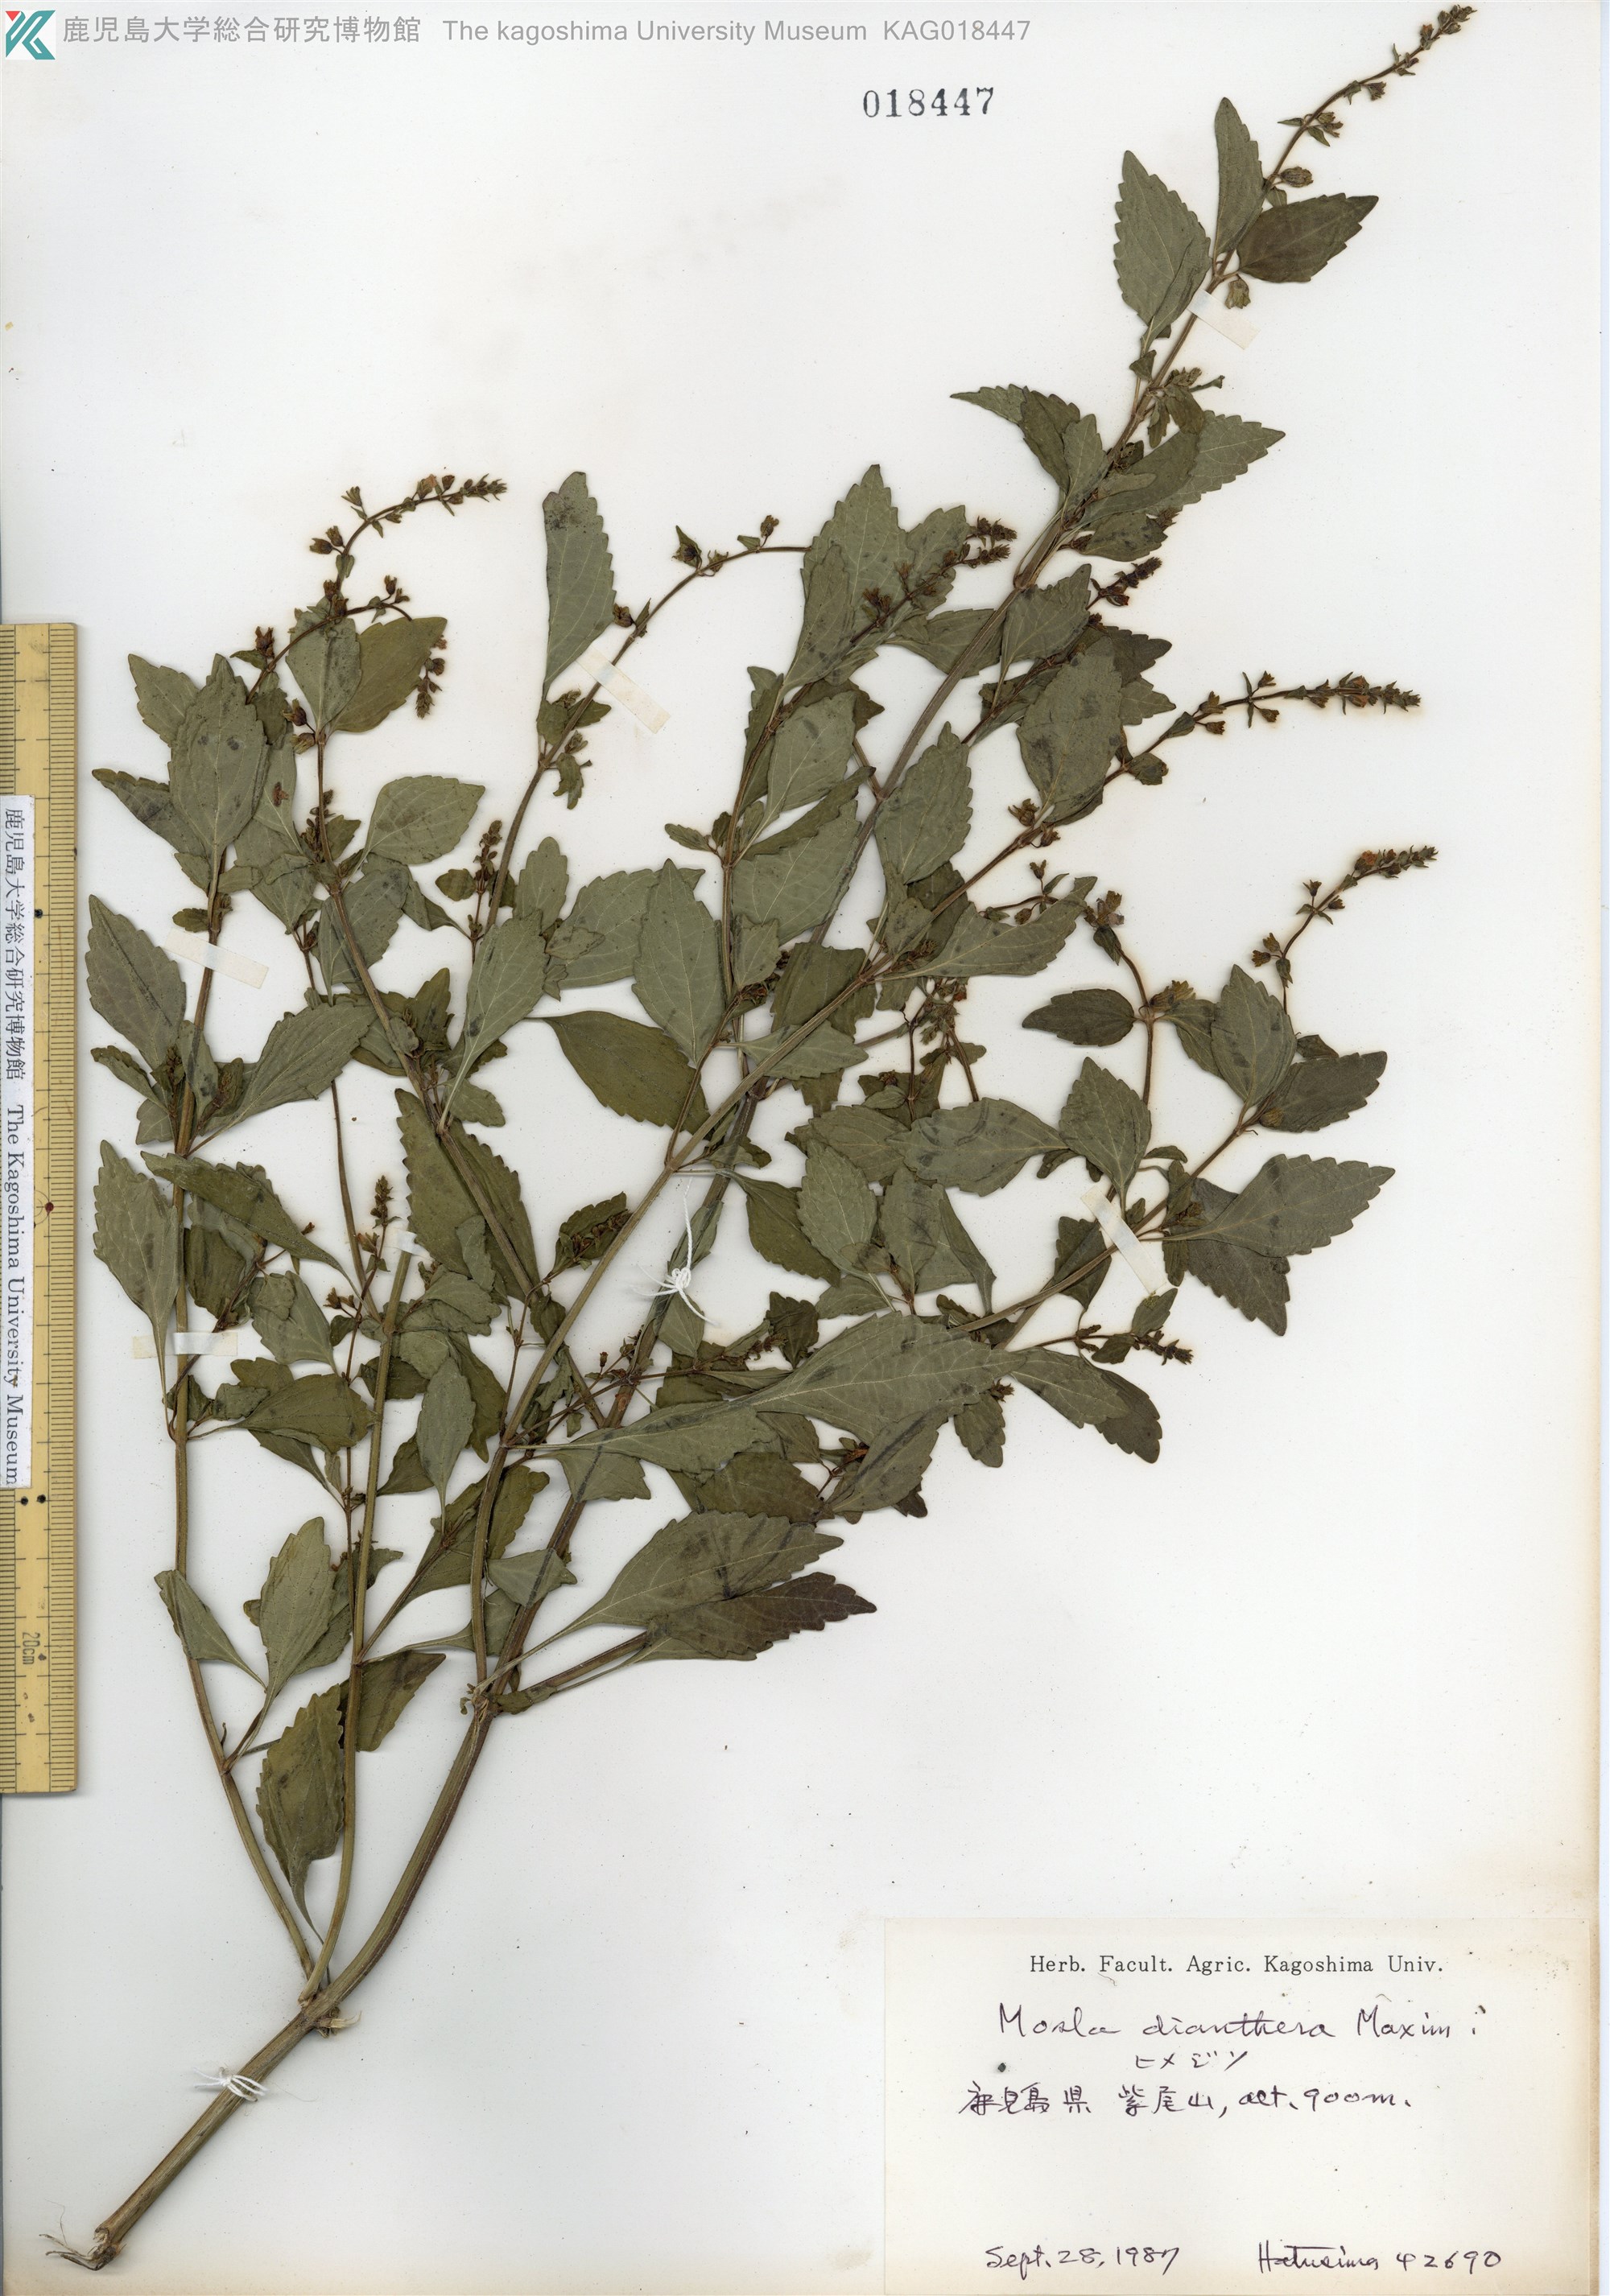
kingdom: Plantae
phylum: Tracheophyta
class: Magnoliopsida
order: Lamiales
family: Lamiaceae
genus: Mosla
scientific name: Mosla dianthera
